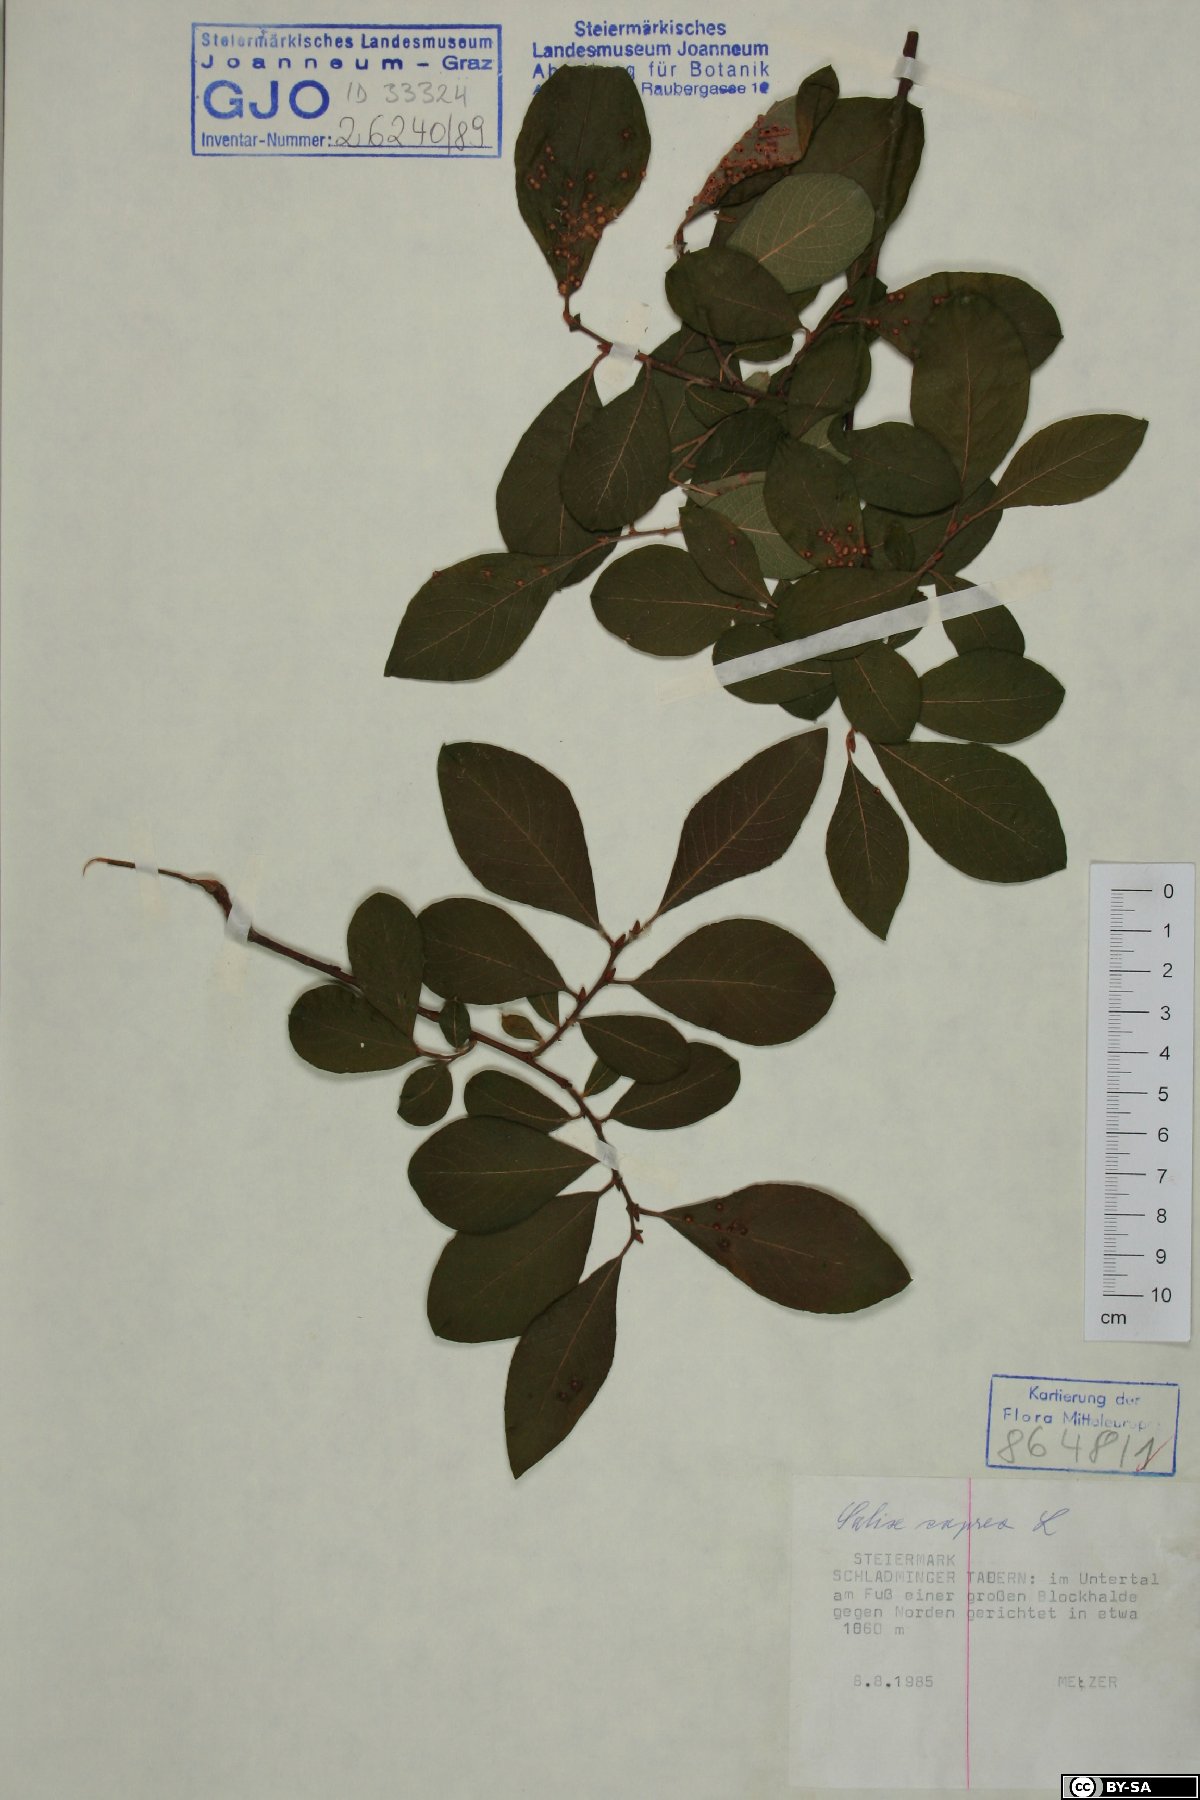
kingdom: Plantae
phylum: Tracheophyta
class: Magnoliopsida
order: Malpighiales
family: Salicaceae
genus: Salix
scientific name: Salix caprea
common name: Goat willow
